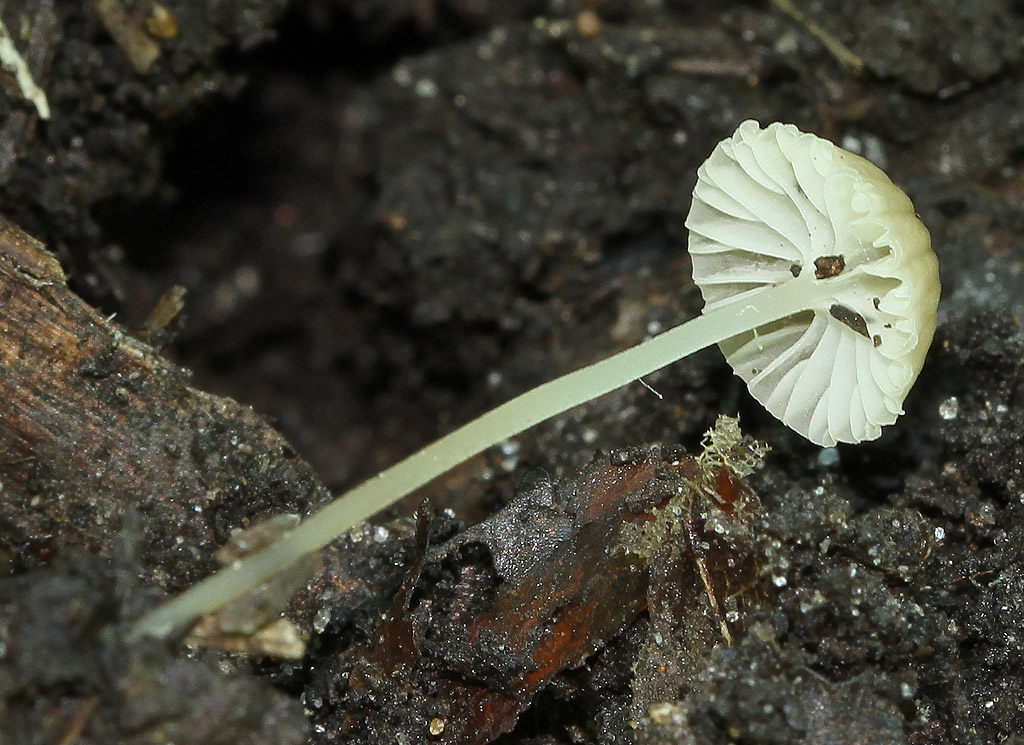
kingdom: Fungi
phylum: Basidiomycota
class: Agaricomycetes
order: Agaricales
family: Porotheleaceae
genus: Phloeomana
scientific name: Phloeomana speirea
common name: kvist-huesvamp
